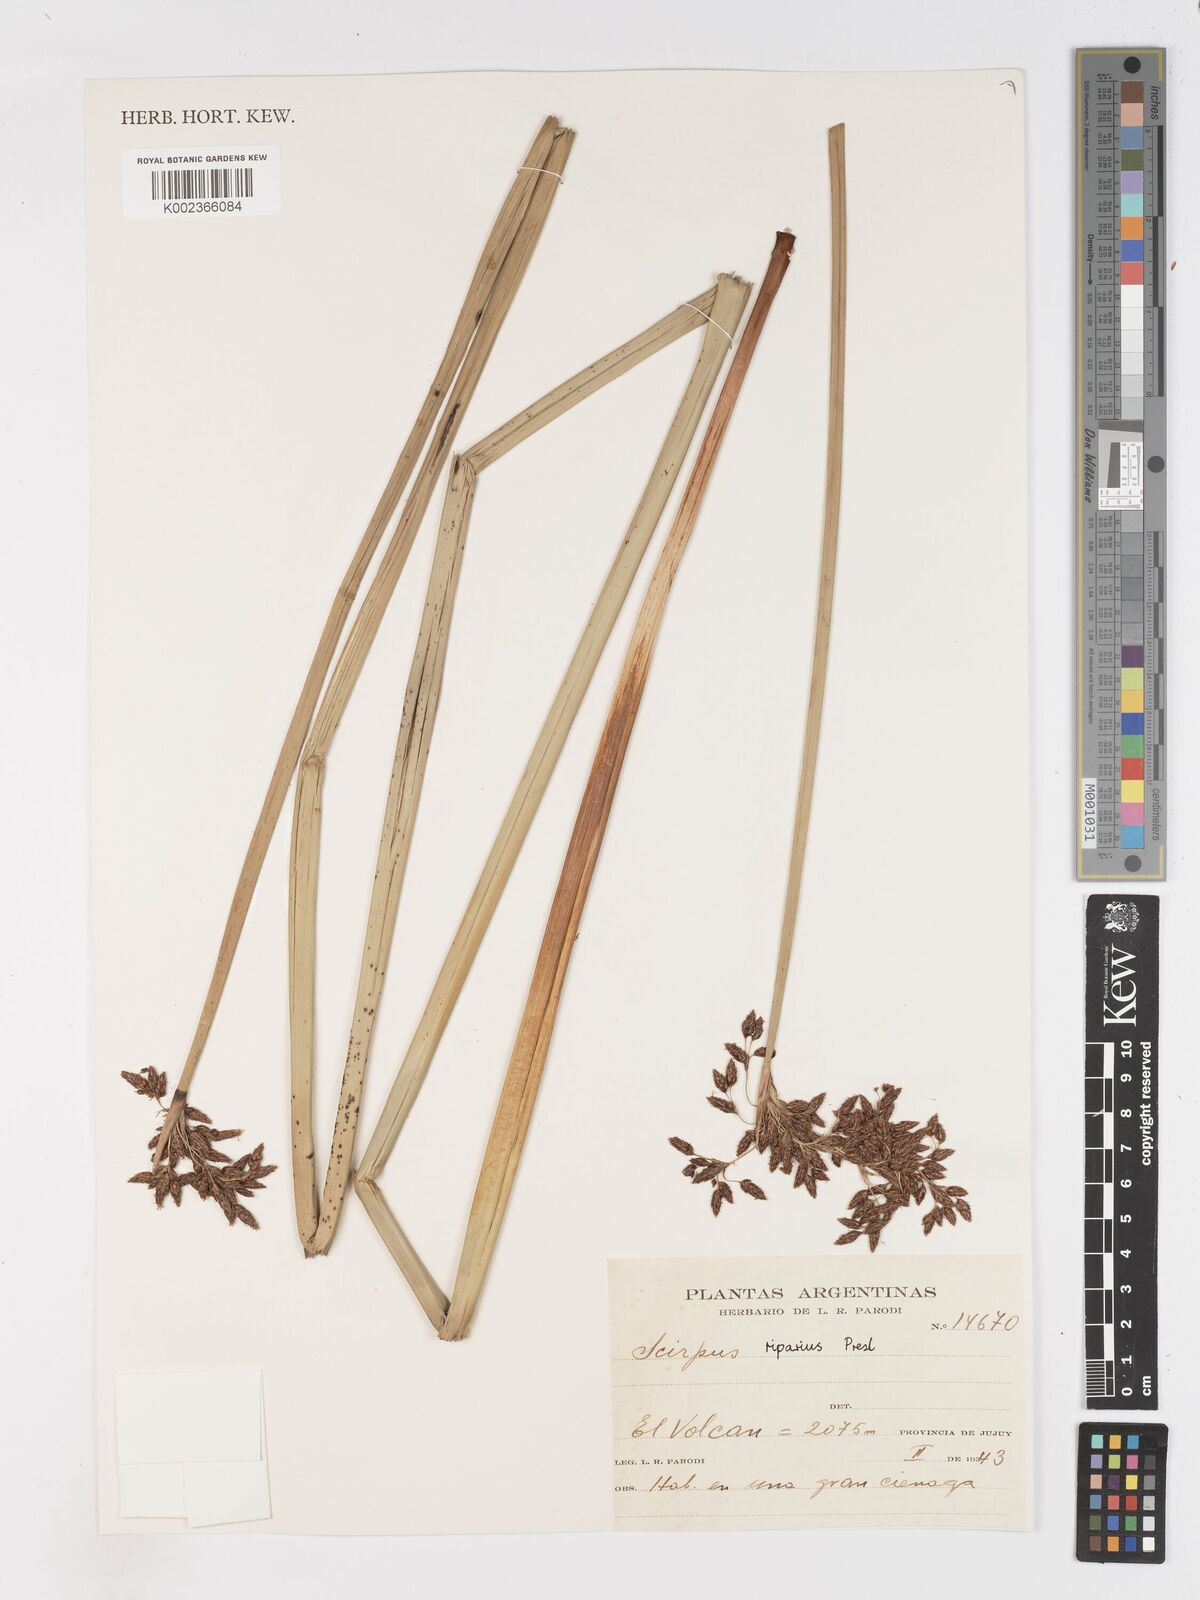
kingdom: Plantae
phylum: Tracheophyta
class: Liliopsida
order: Poales
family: Cyperaceae
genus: Schoenoplectus
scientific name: Schoenoplectus californicus
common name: California bulrush
